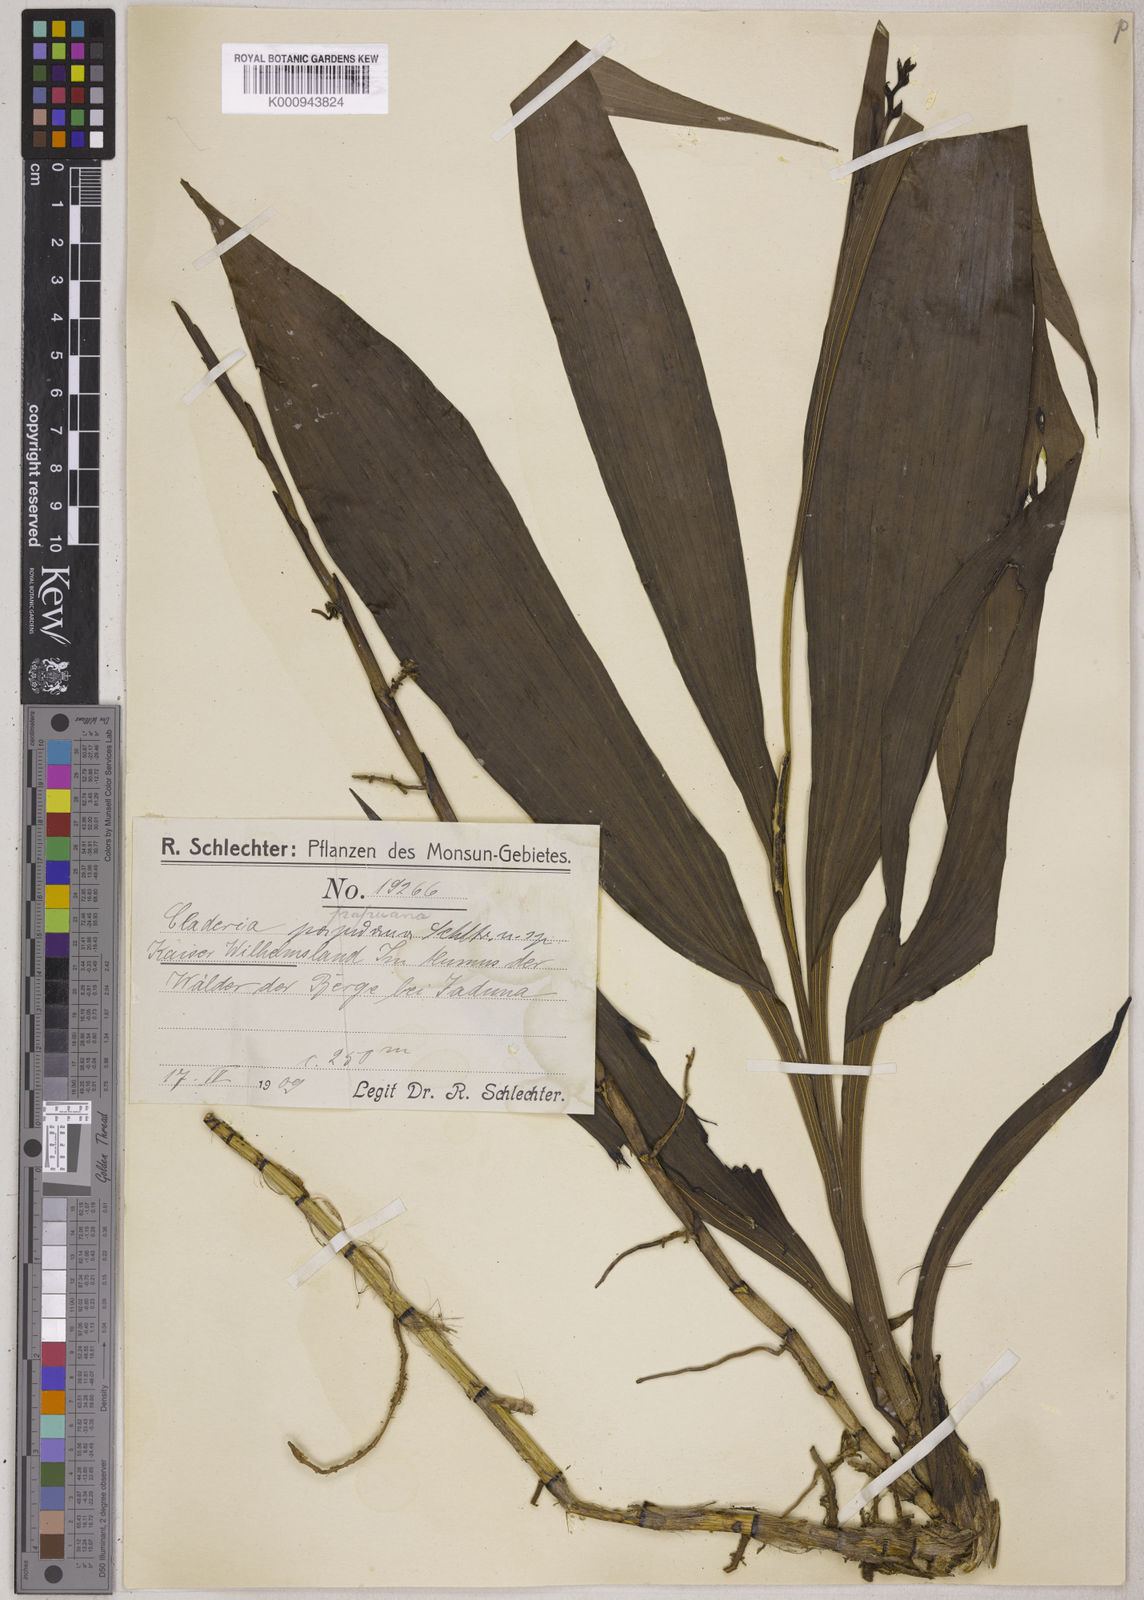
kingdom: Plantae
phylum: Tracheophyta
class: Liliopsida
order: Asparagales
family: Orchidaceae
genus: Claderia
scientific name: Claderia viridiflora
